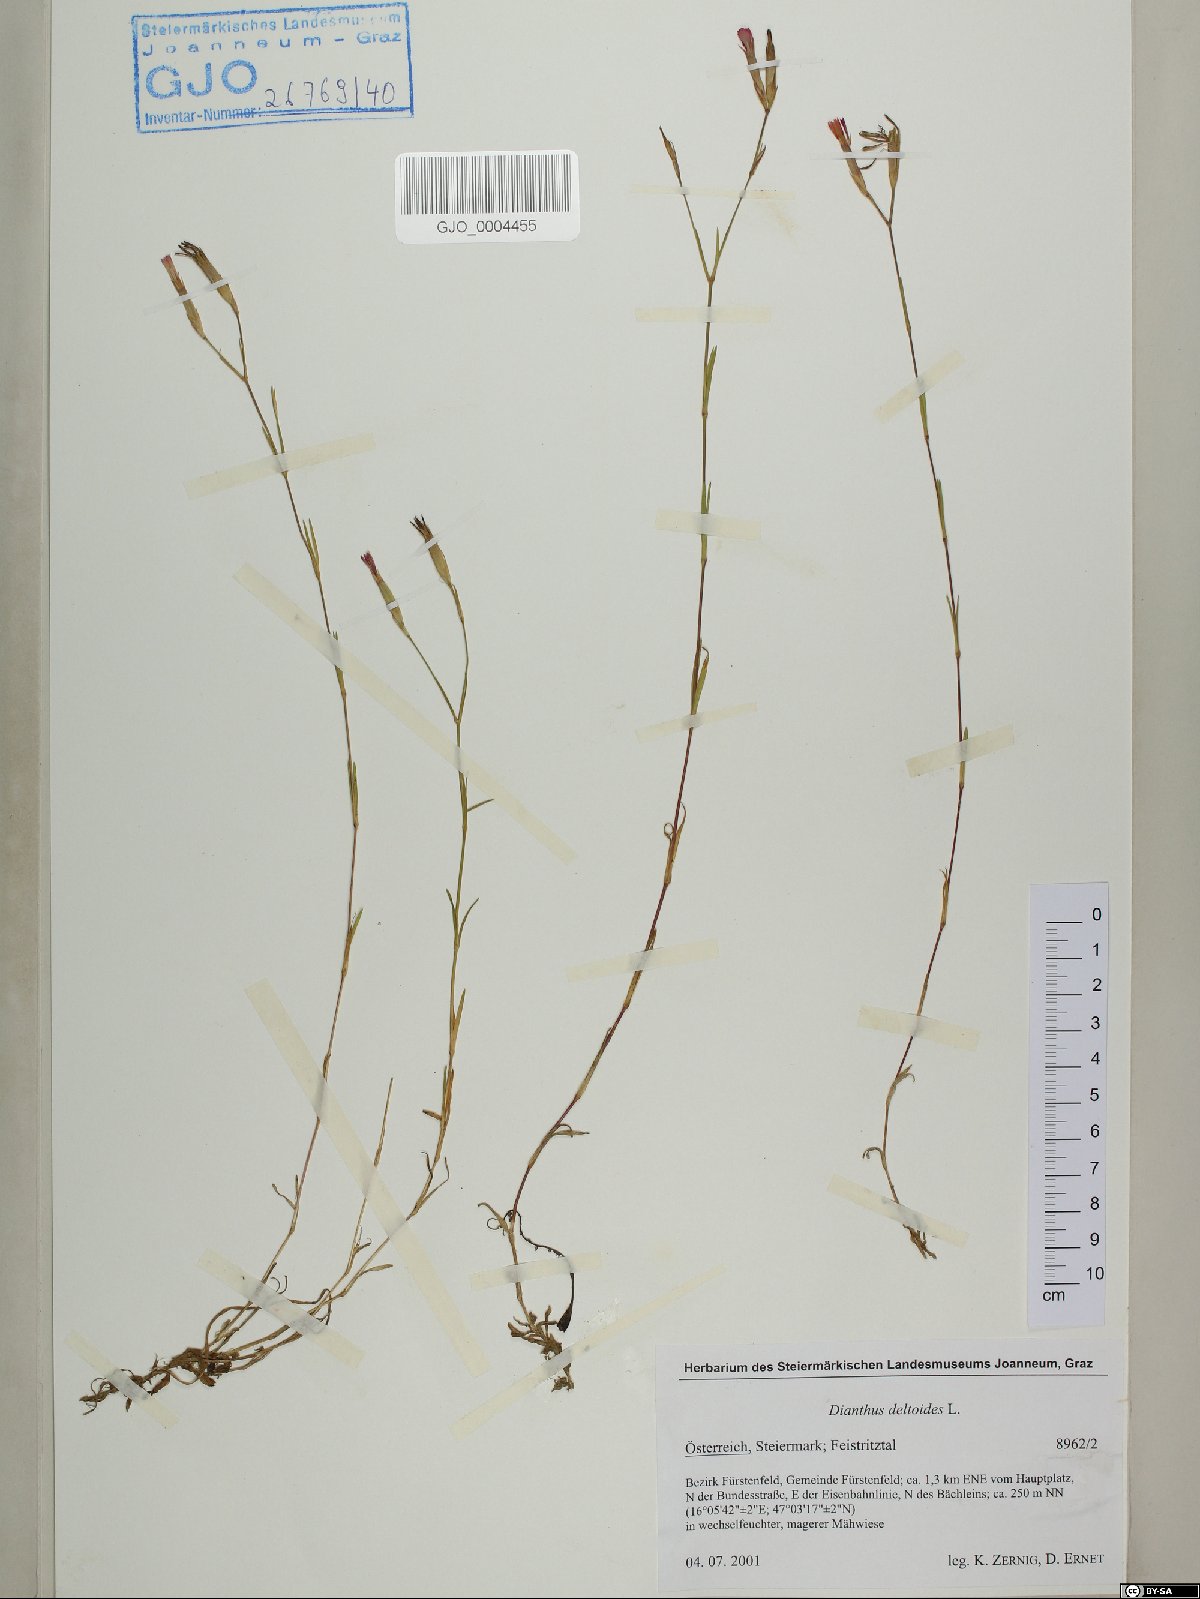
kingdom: Plantae
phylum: Tracheophyta
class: Magnoliopsida
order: Caryophyllales
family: Caryophyllaceae
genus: Dianthus
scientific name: Dianthus deltoides
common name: Maiden pink
